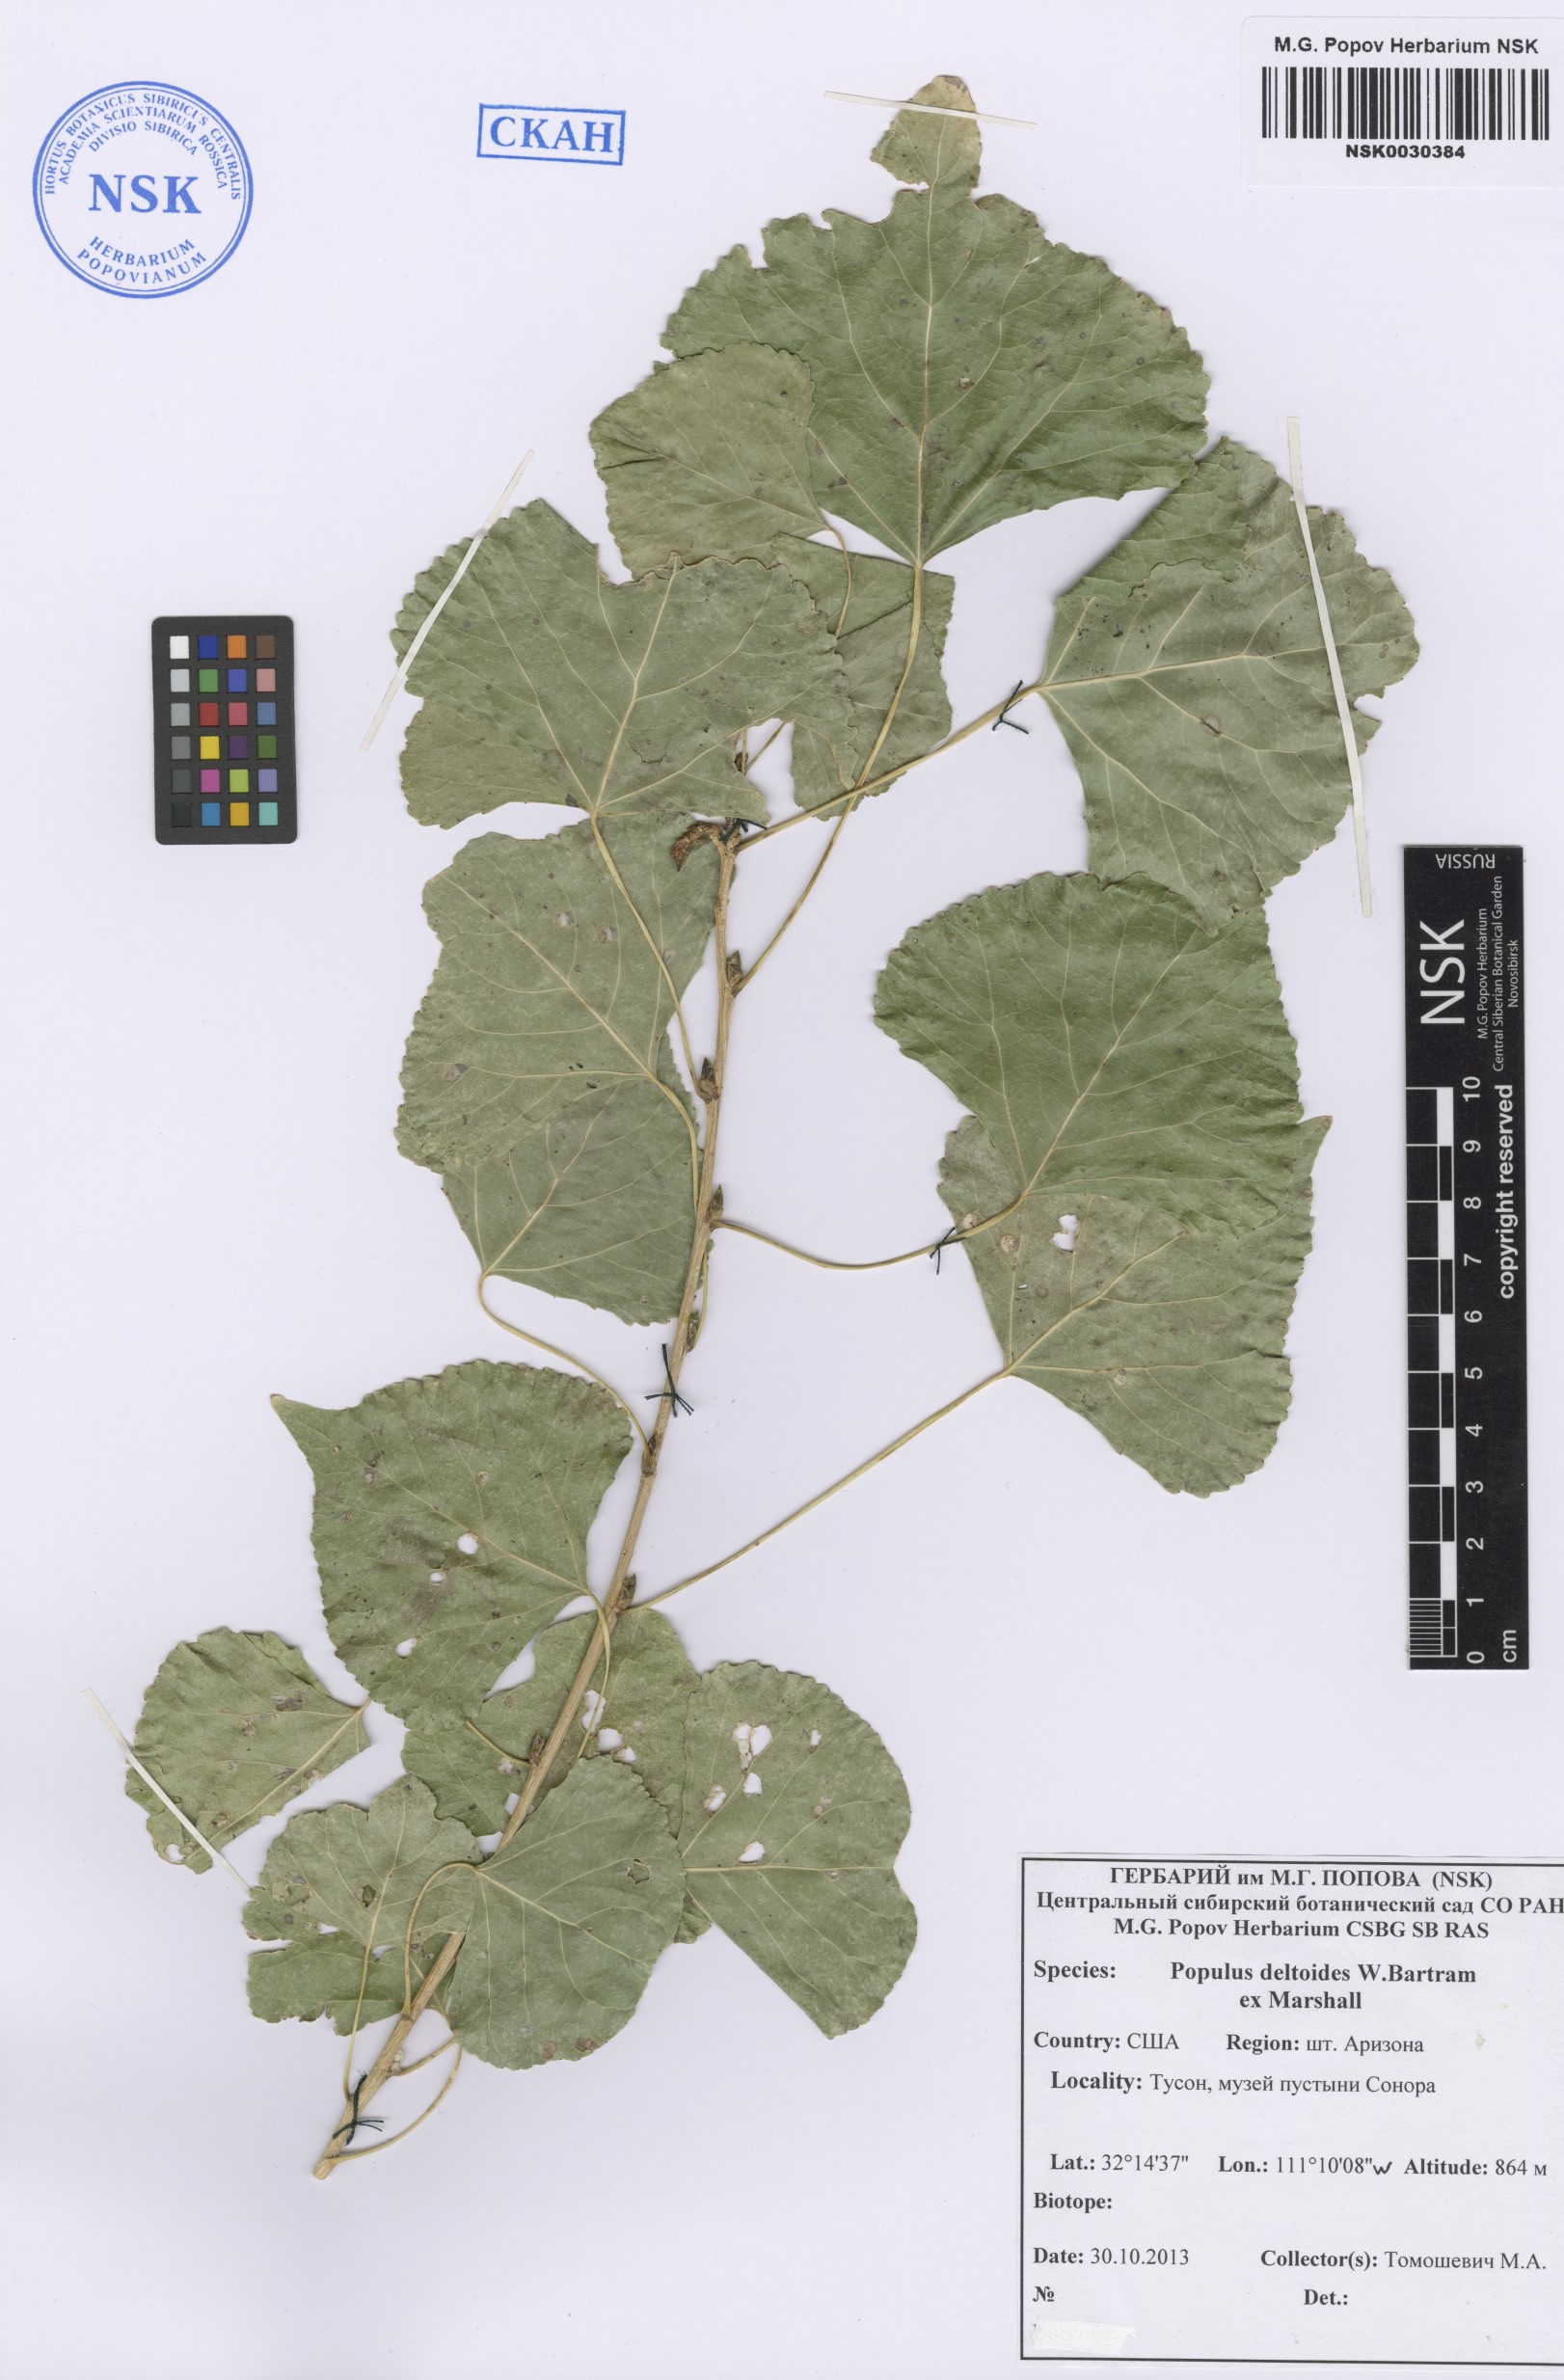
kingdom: Plantae
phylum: Tracheophyta
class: Magnoliopsida
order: Malpighiales
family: Salicaceae
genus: Populus
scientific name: Populus deltoides
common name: Eastern cottonwood
